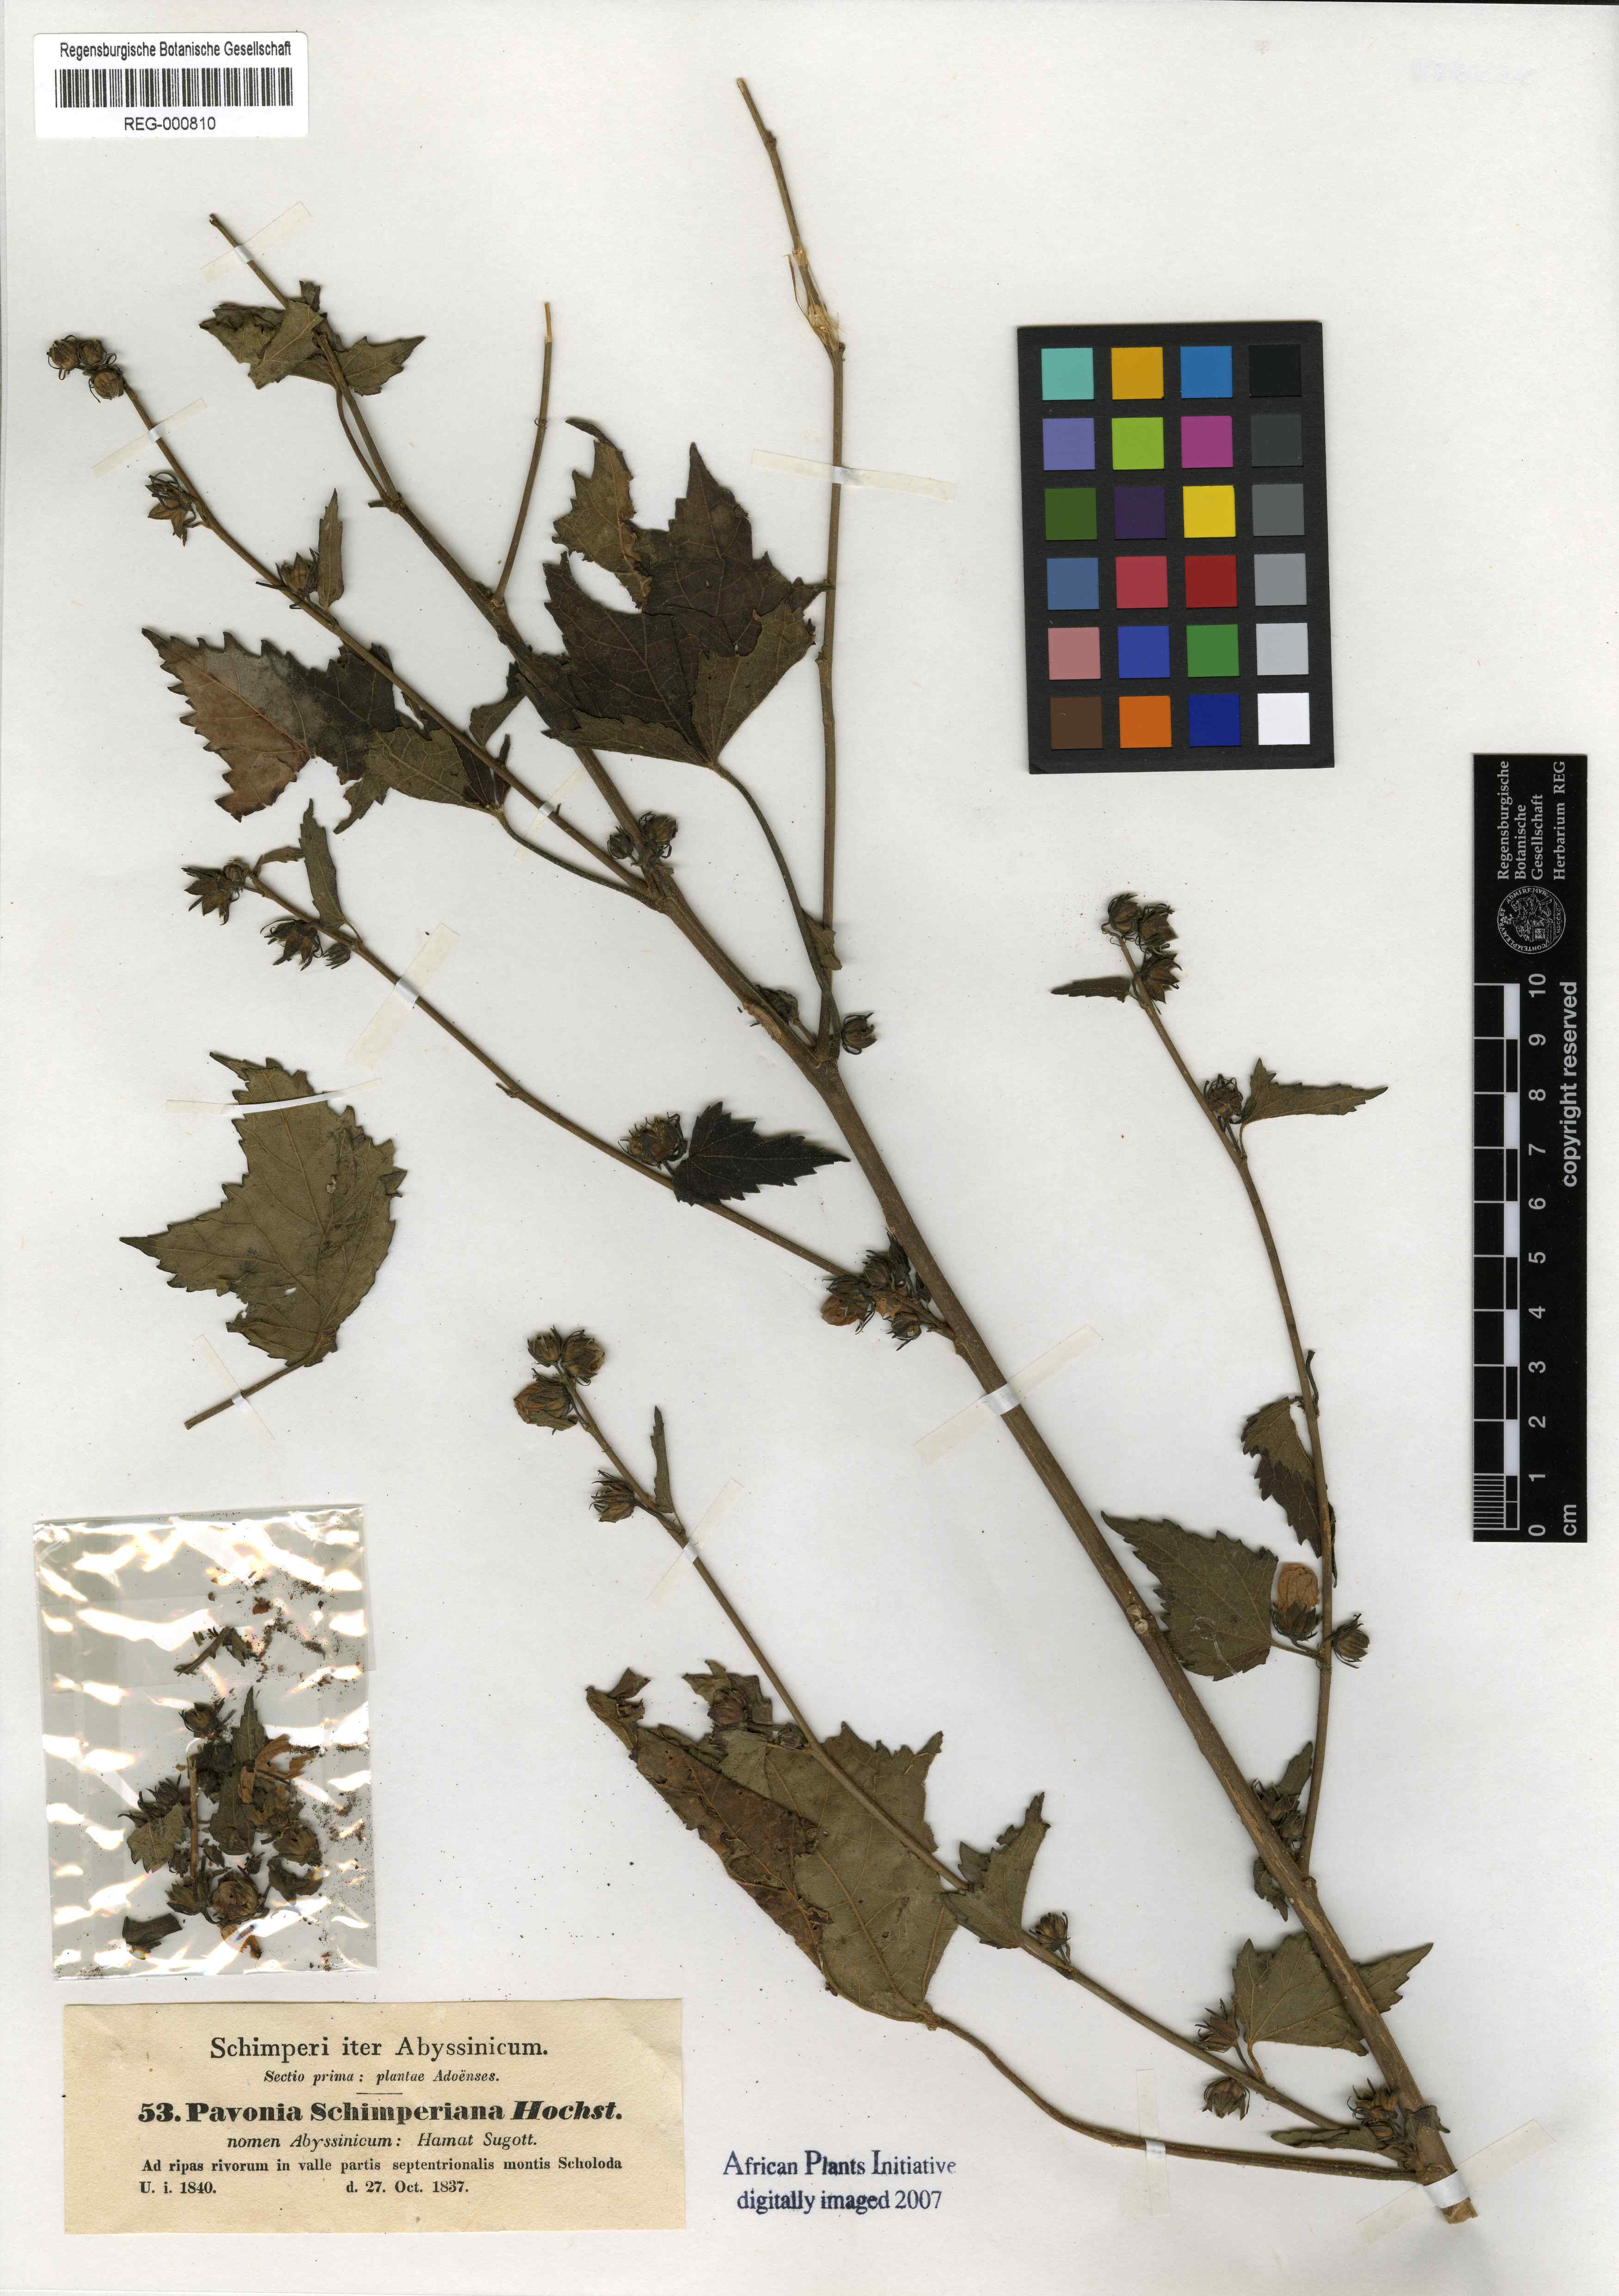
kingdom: Plantae
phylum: Tracheophyta
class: Magnoliopsida
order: Malvales
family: Malvaceae
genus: Pavonia
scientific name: Pavonia schimperiana
